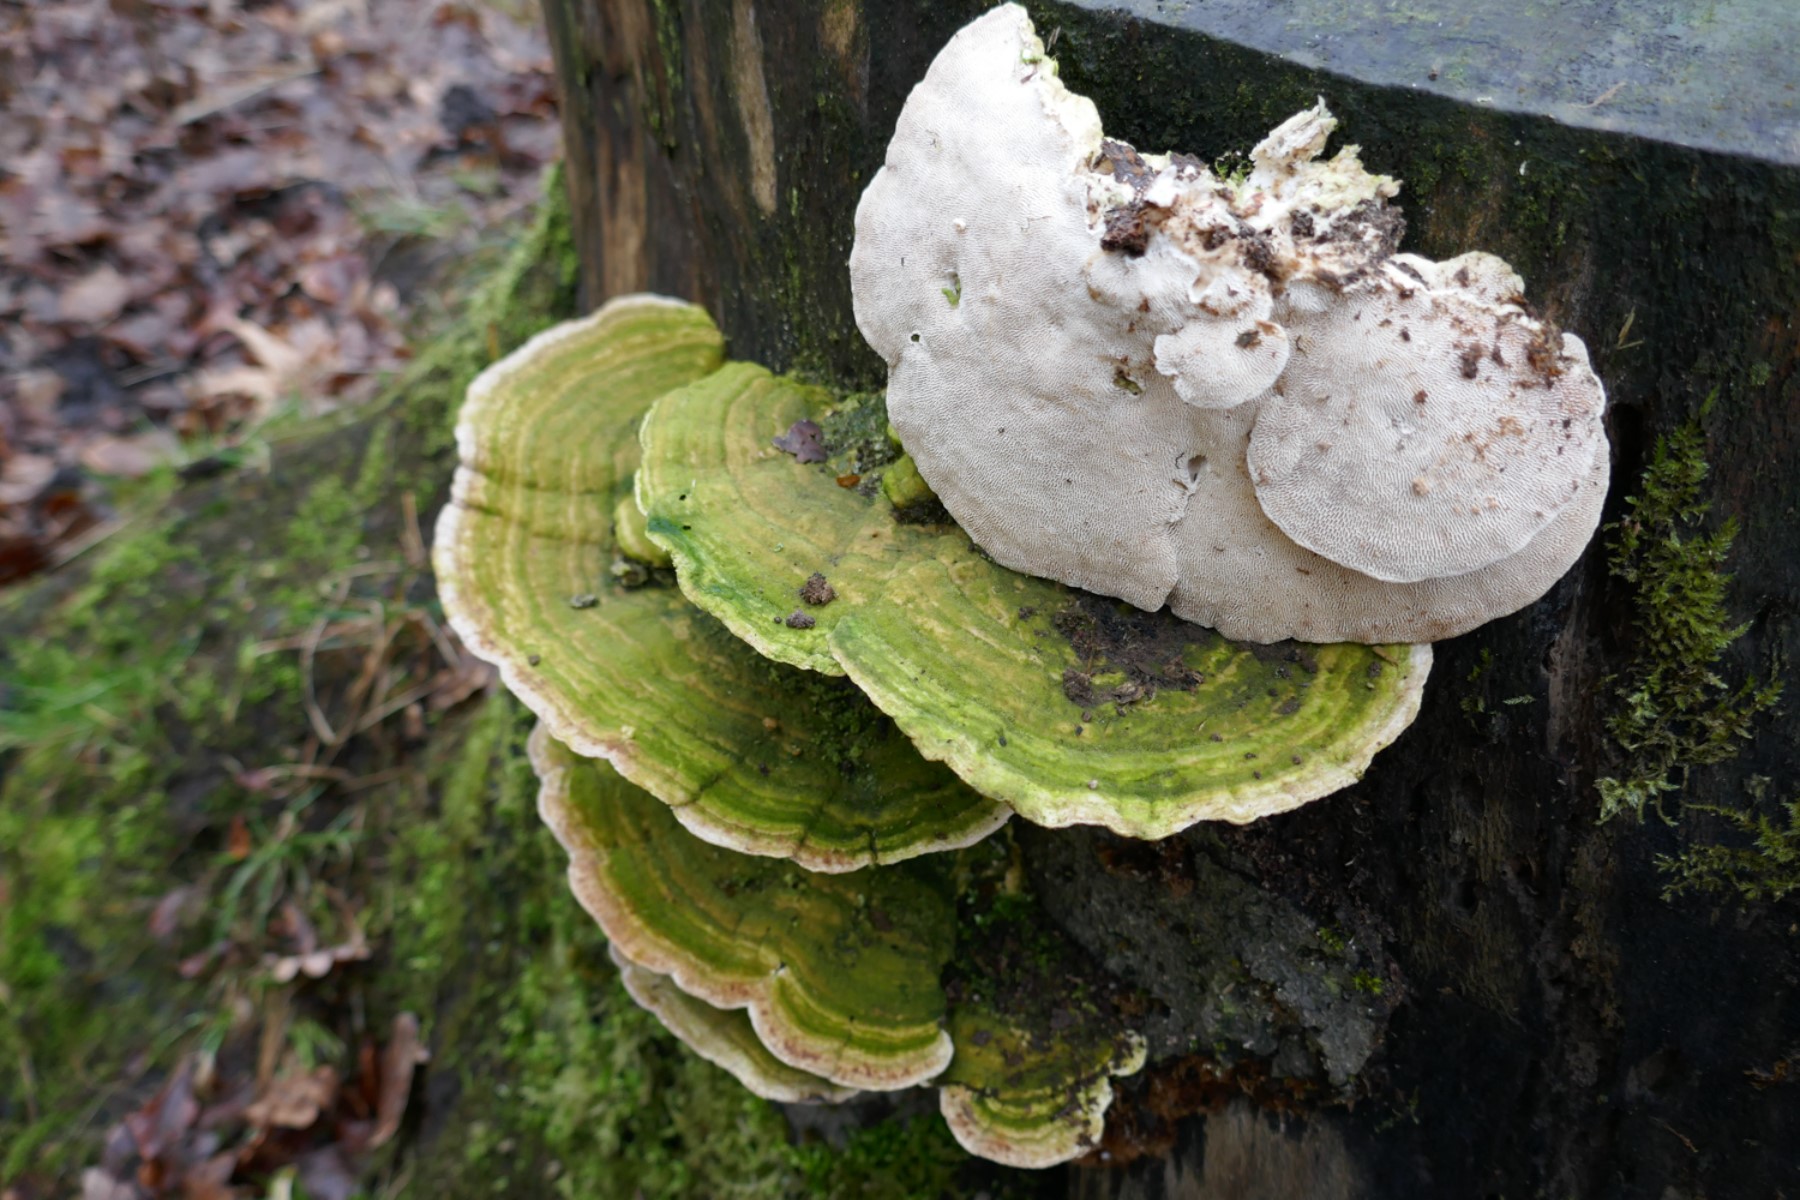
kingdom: Fungi
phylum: Basidiomycota
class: Agaricomycetes
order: Polyporales
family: Polyporaceae
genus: Trametes
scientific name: Trametes gibbosa
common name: puklet læderporesvamp
